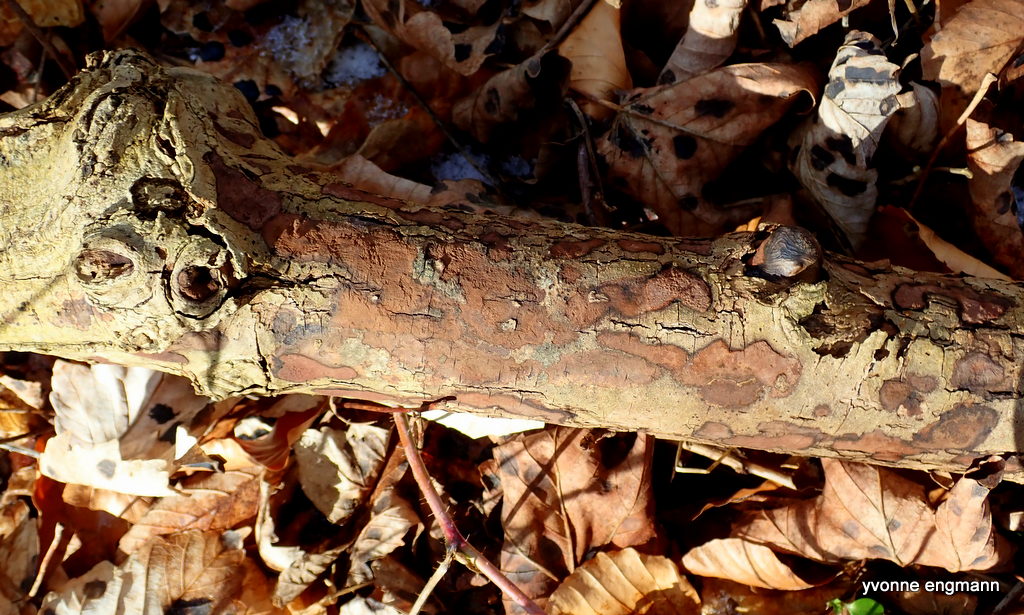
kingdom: Fungi
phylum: Ascomycota
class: Sordariomycetes
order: Xylariales
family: Hypoxylaceae
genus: Hypoxylon
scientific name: Hypoxylon petriniae
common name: nedsænket kulbær
